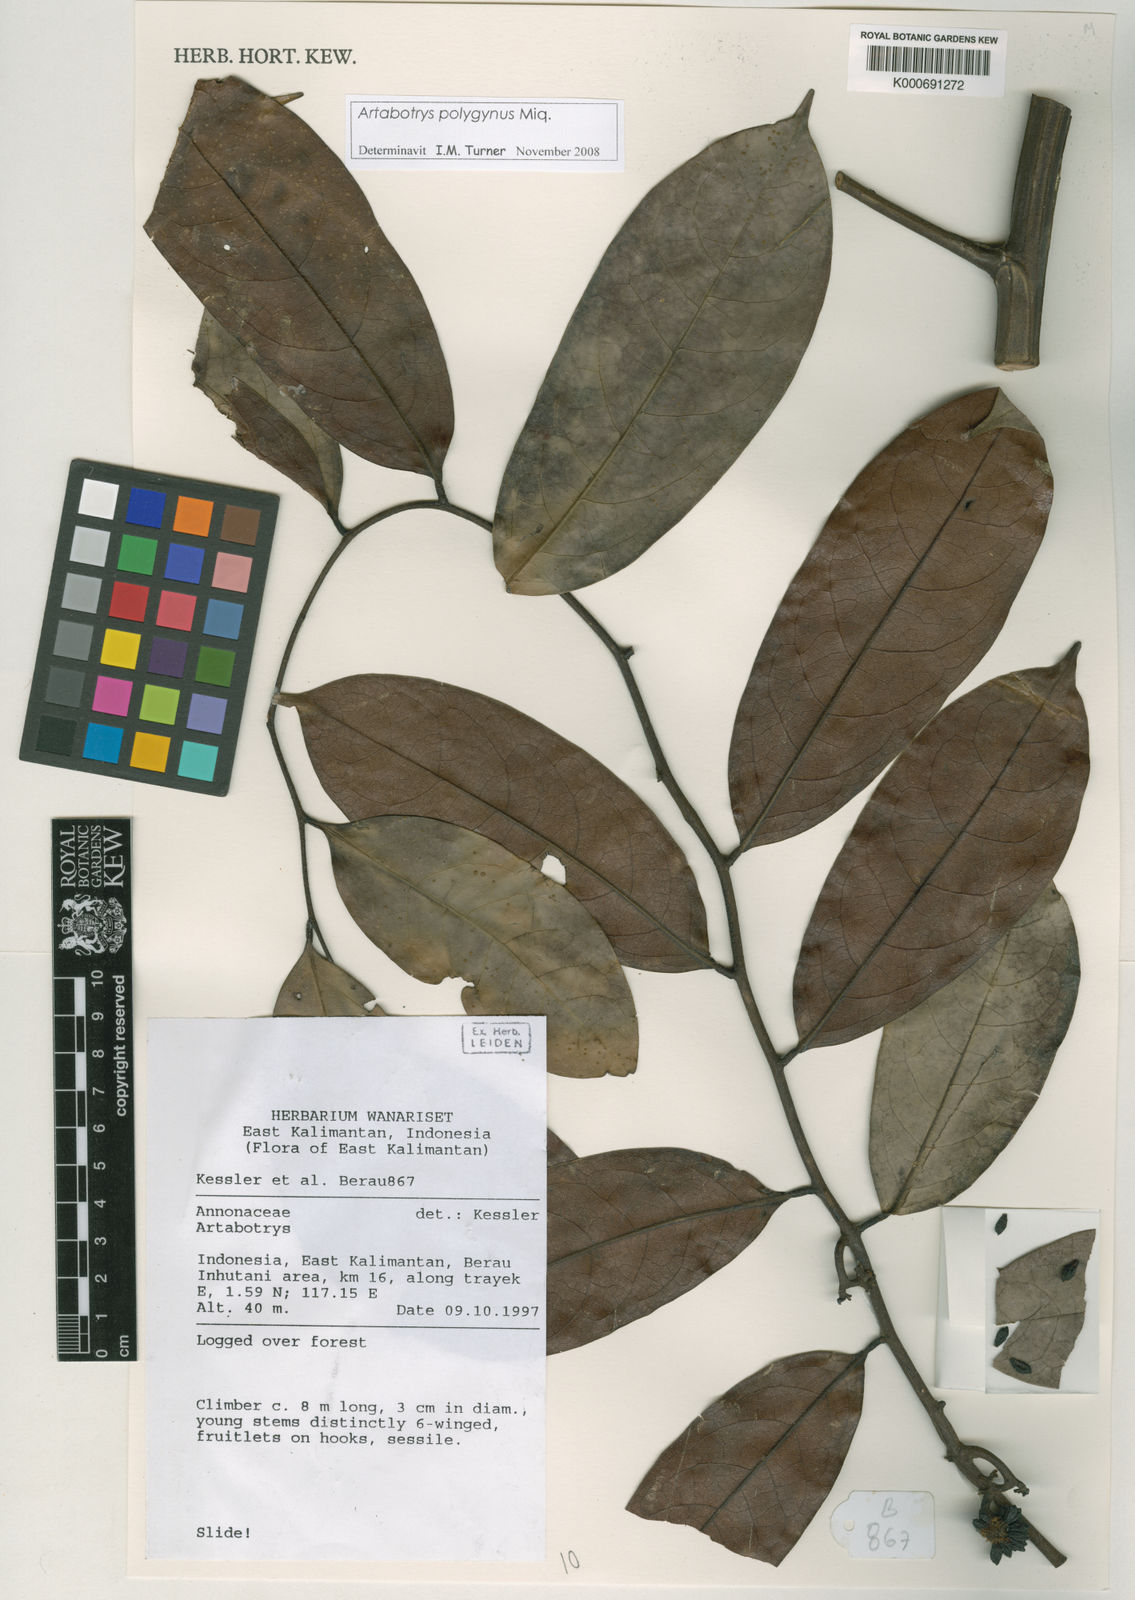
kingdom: Plantae
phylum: Tracheophyta
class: Magnoliopsida
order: Magnoliales
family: Annonaceae
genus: Artabotrys
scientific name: Artabotrys polygynus
